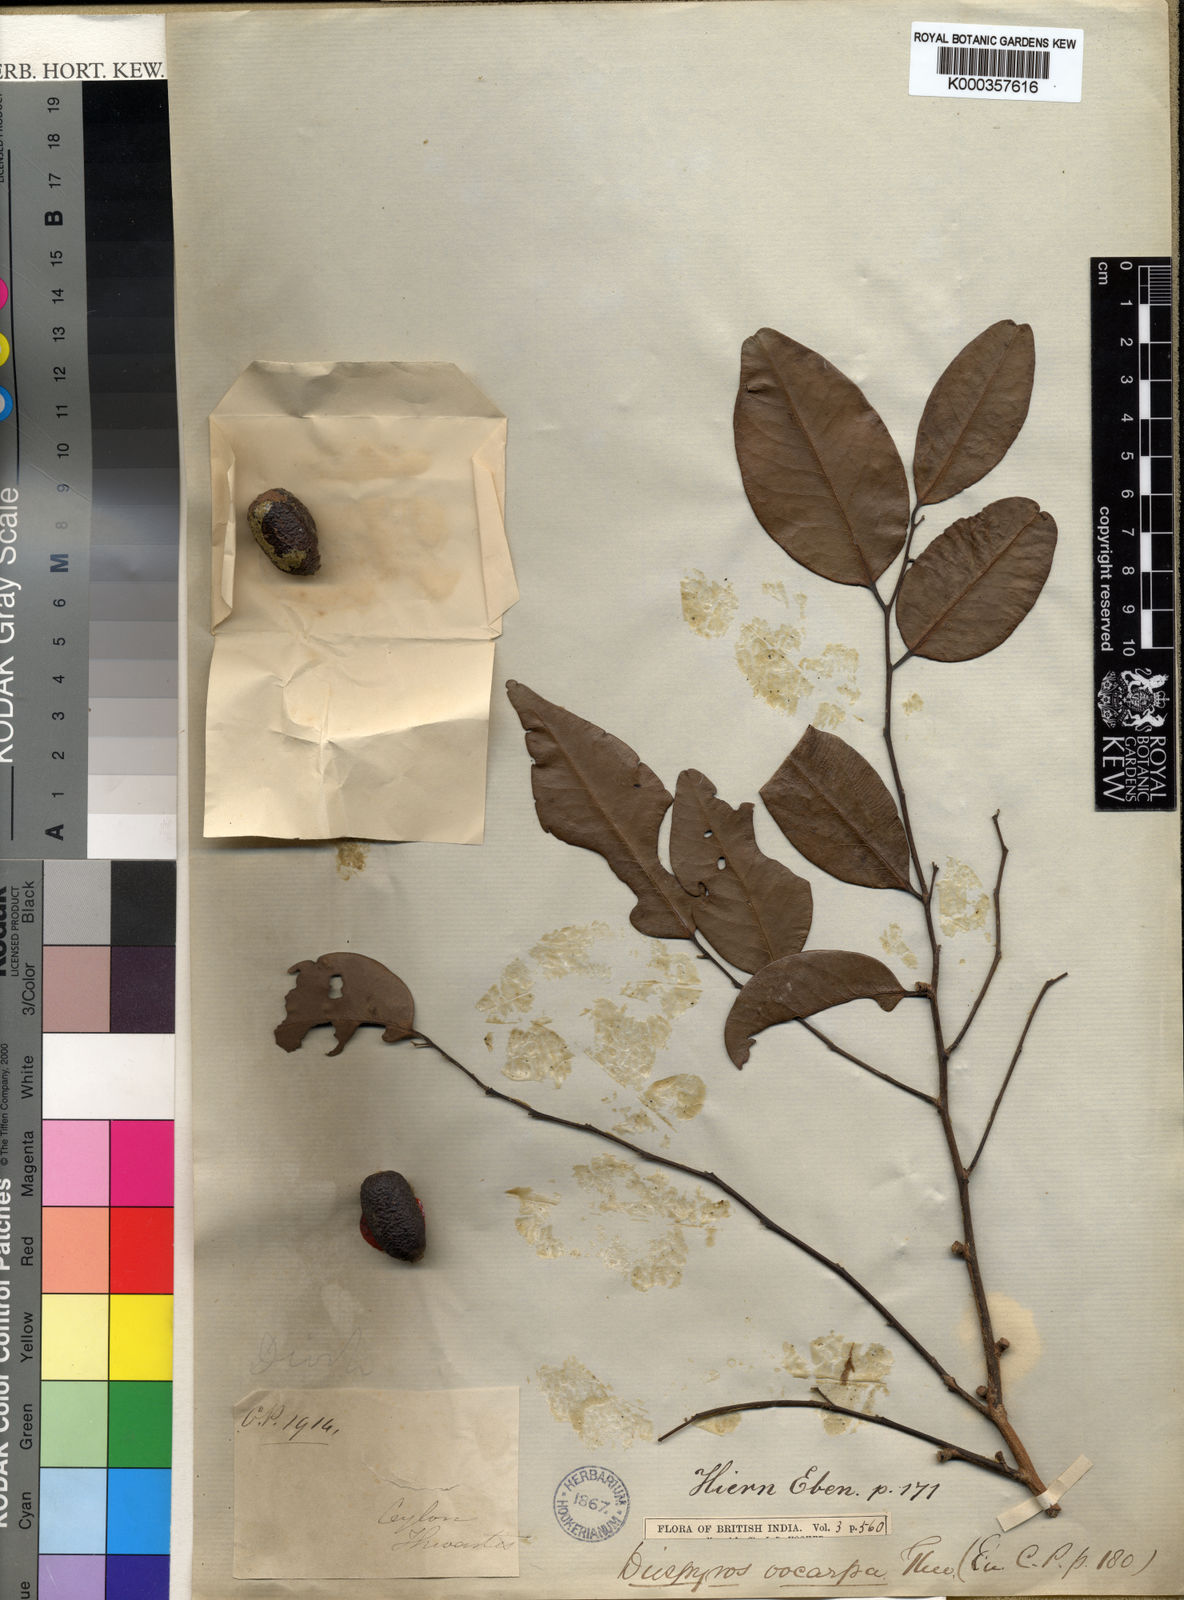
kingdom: Plantae
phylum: Tracheophyta
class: Magnoliopsida
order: Ericales
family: Ebenaceae
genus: Diospyros
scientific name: Diospyros oocarpa
